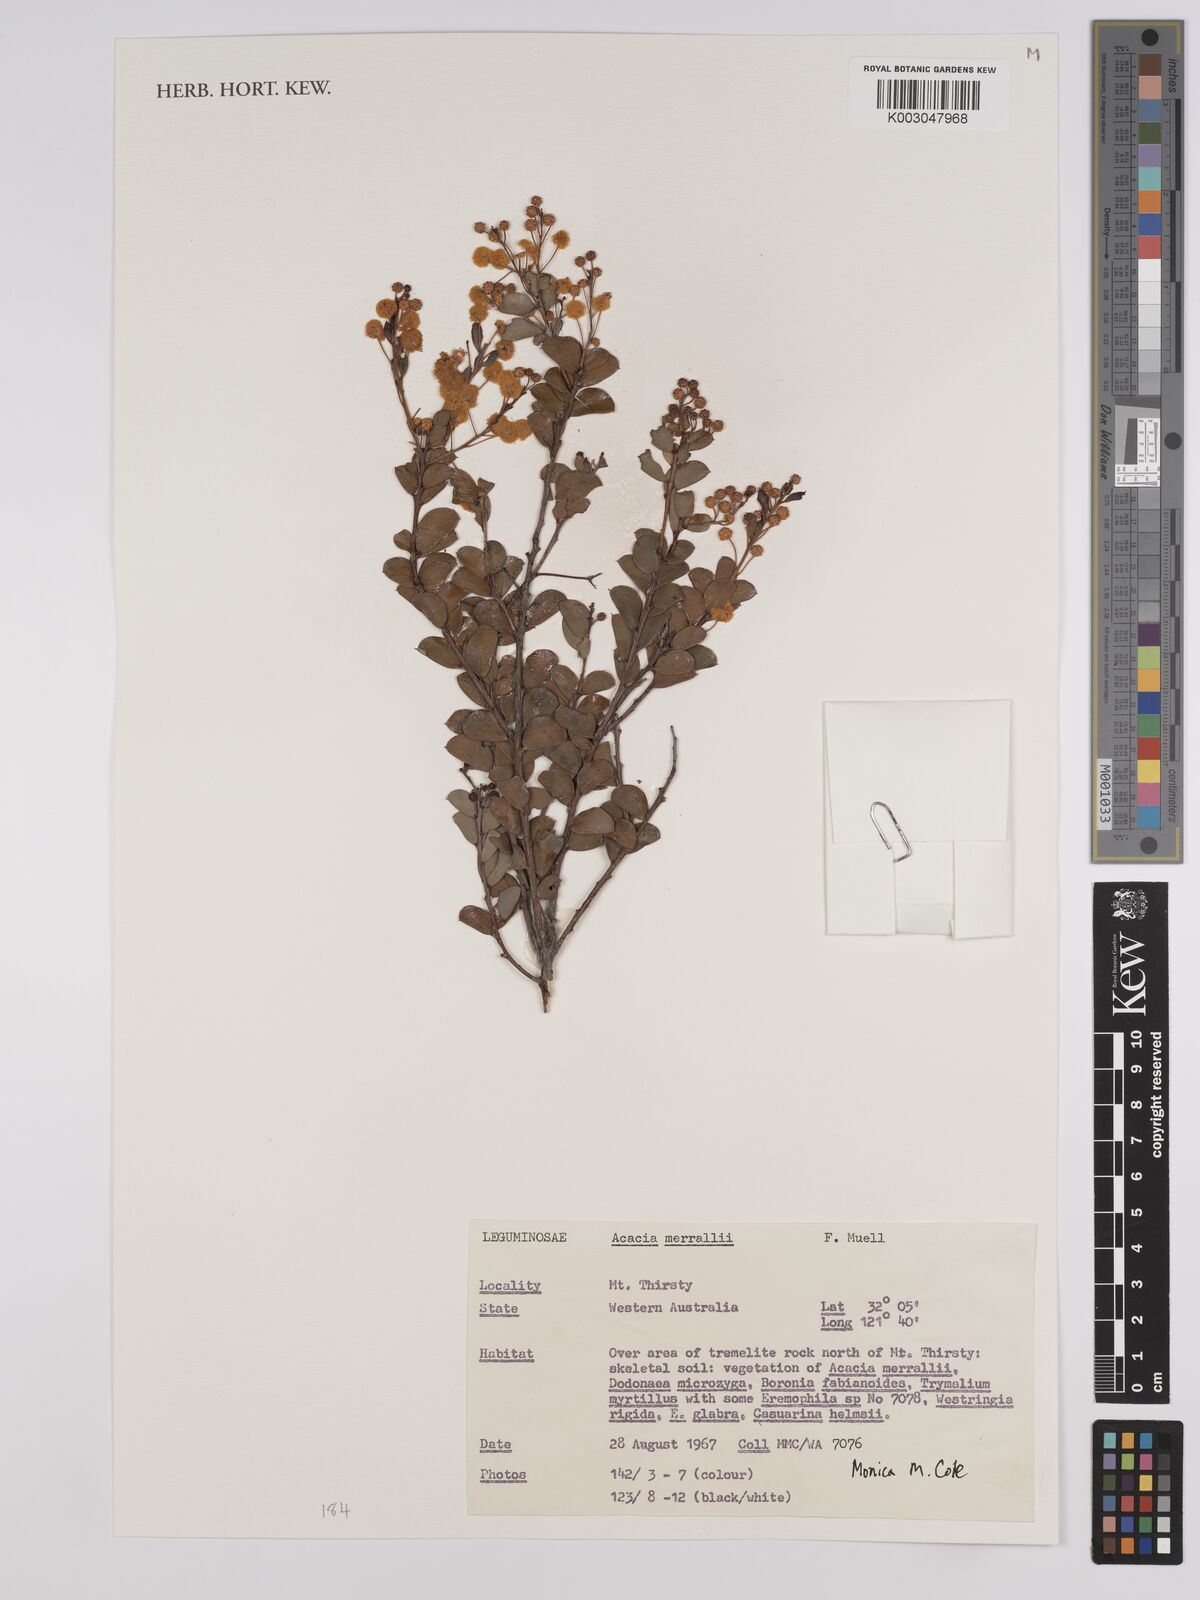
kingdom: Plantae
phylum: Tracheophyta
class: Magnoliopsida
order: Fabales
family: Fabaceae
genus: Acacia
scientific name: Acacia merrallii
